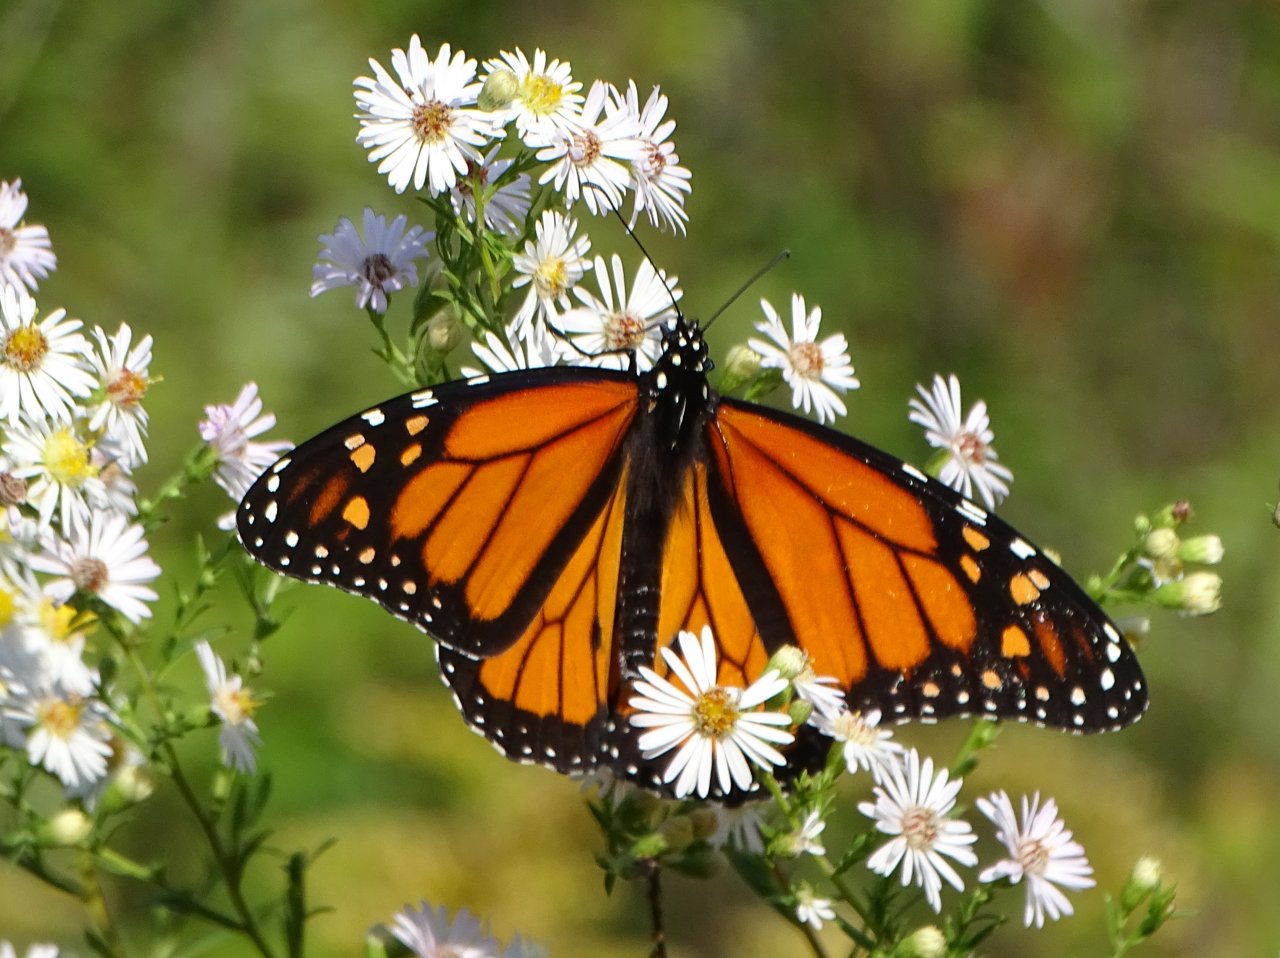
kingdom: Animalia
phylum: Arthropoda
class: Insecta
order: Lepidoptera
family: Nymphalidae
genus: Danaus
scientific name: Danaus plexippus
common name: Monarch
